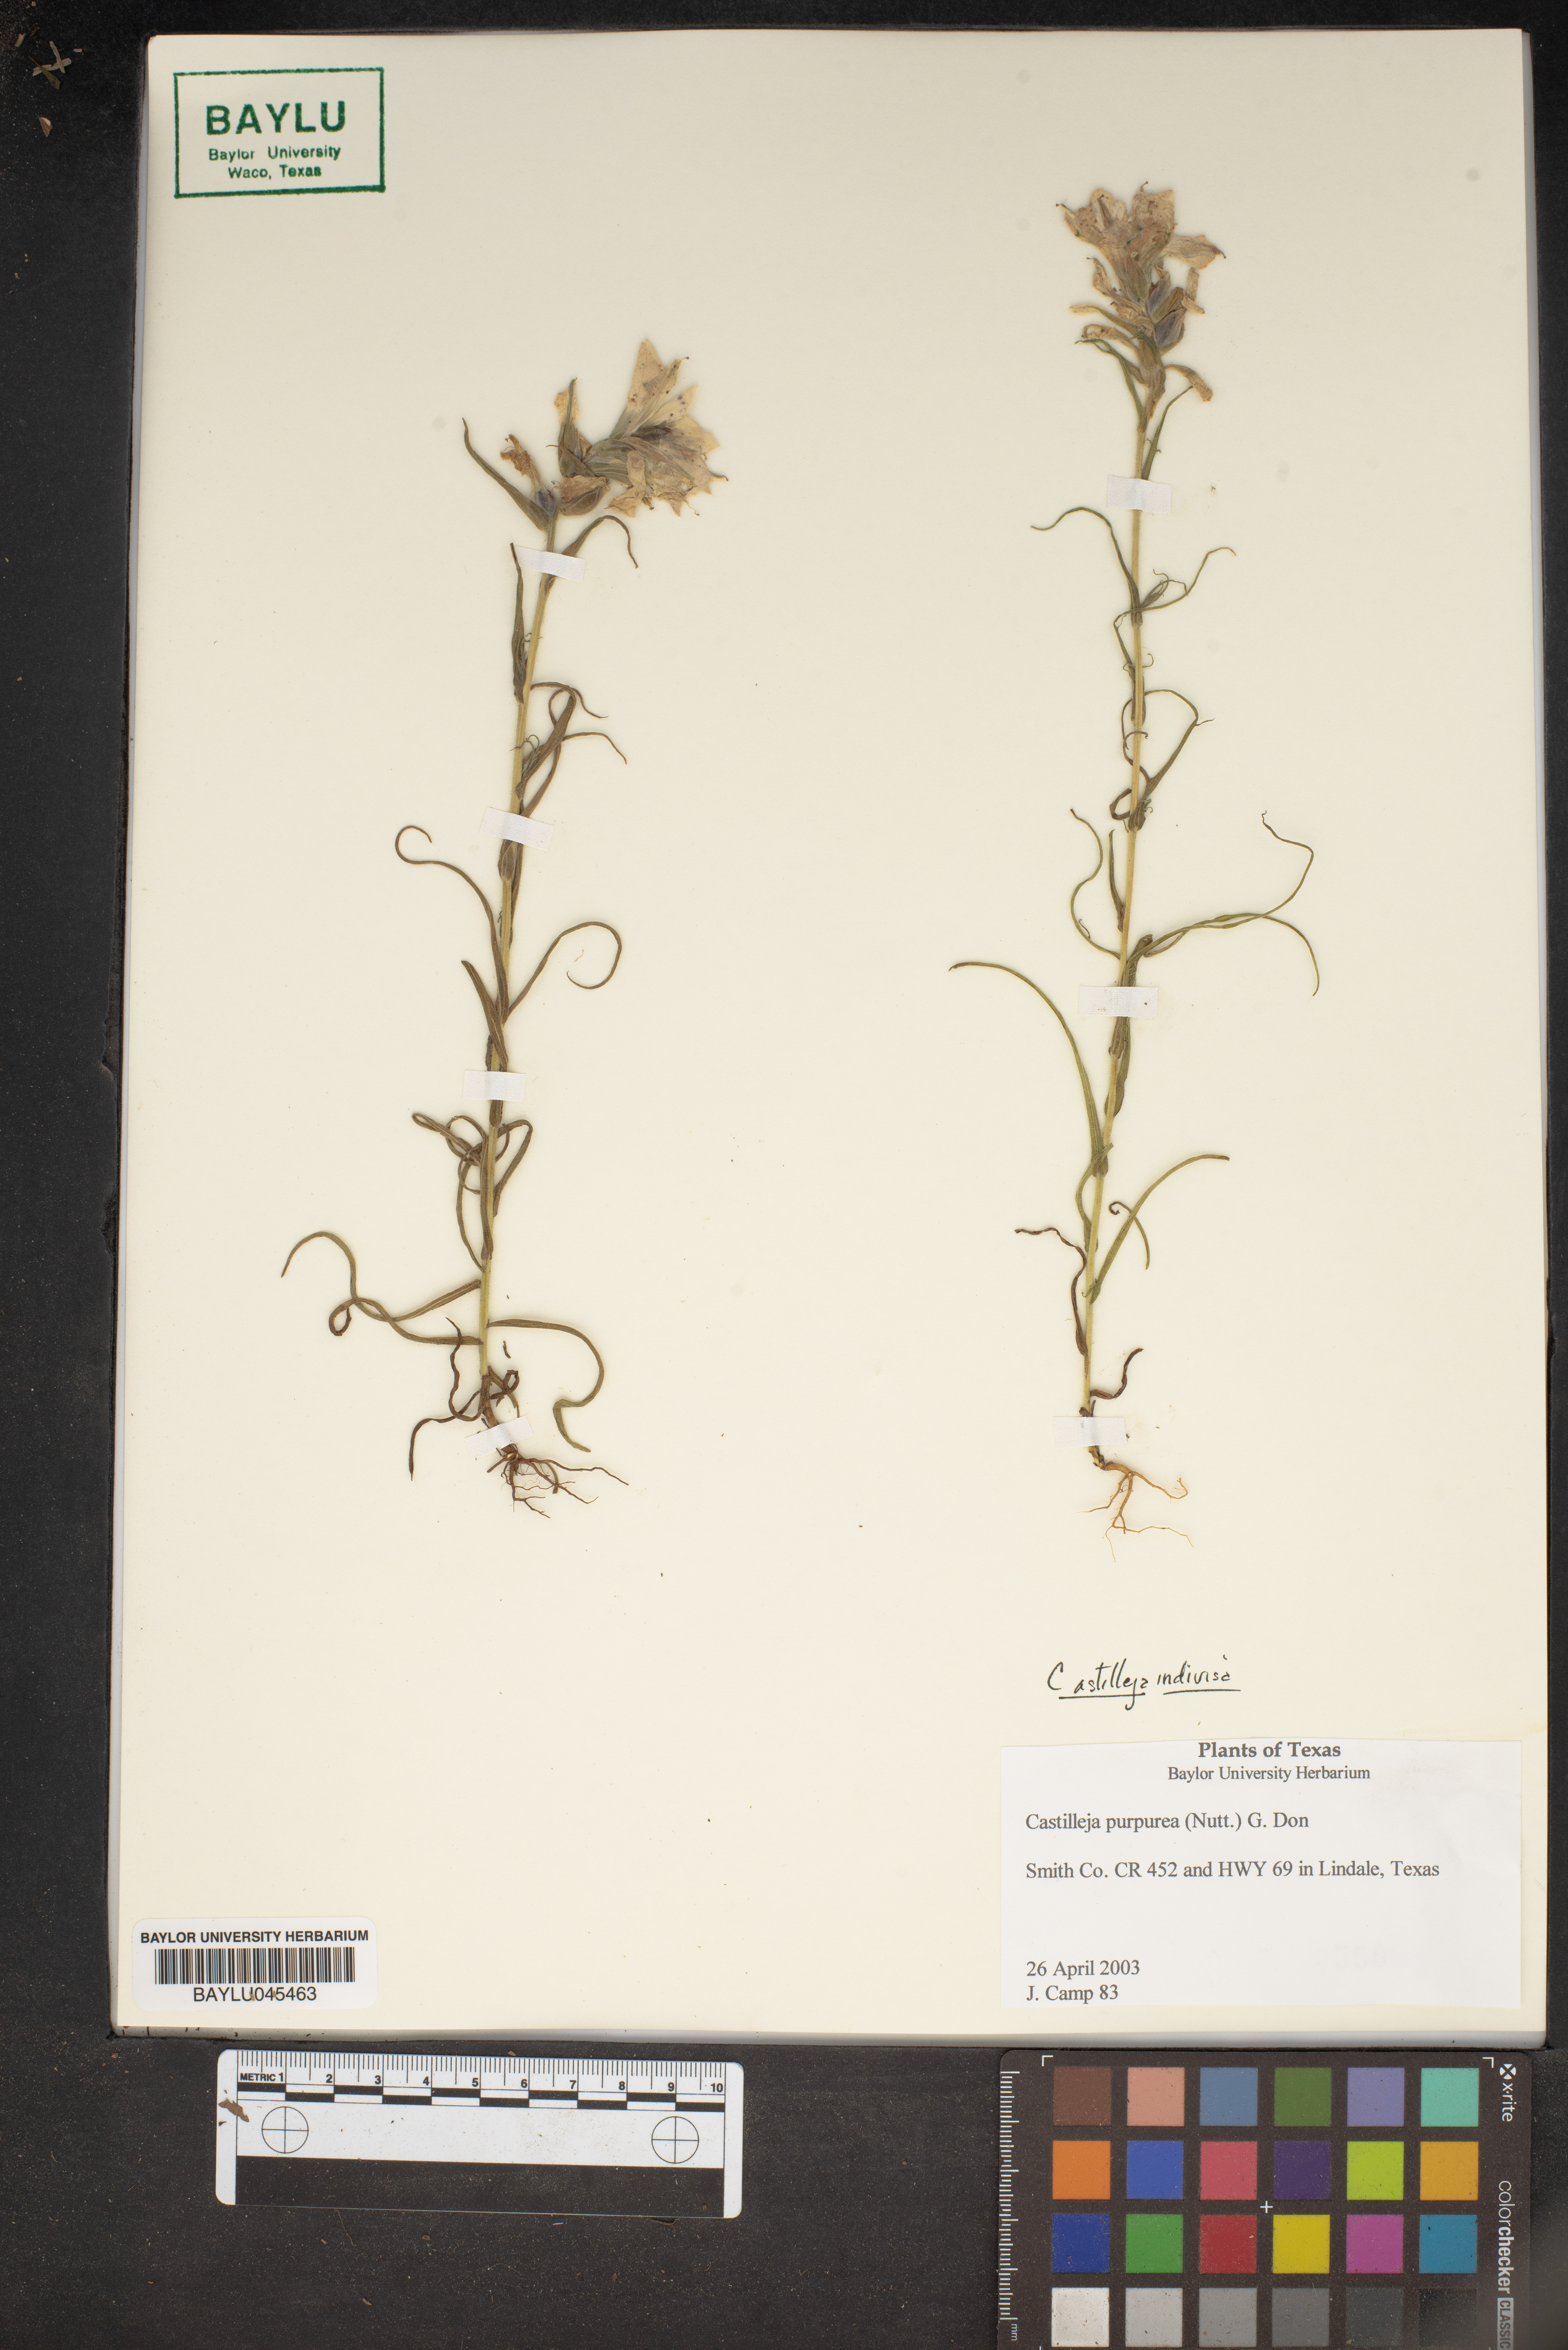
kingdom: Plantae
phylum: Tracheophyta
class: Magnoliopsida
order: Lamiales
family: Orobanchaceae
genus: Castilleja
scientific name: Castilleja purpurea
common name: Plains paintbrush
